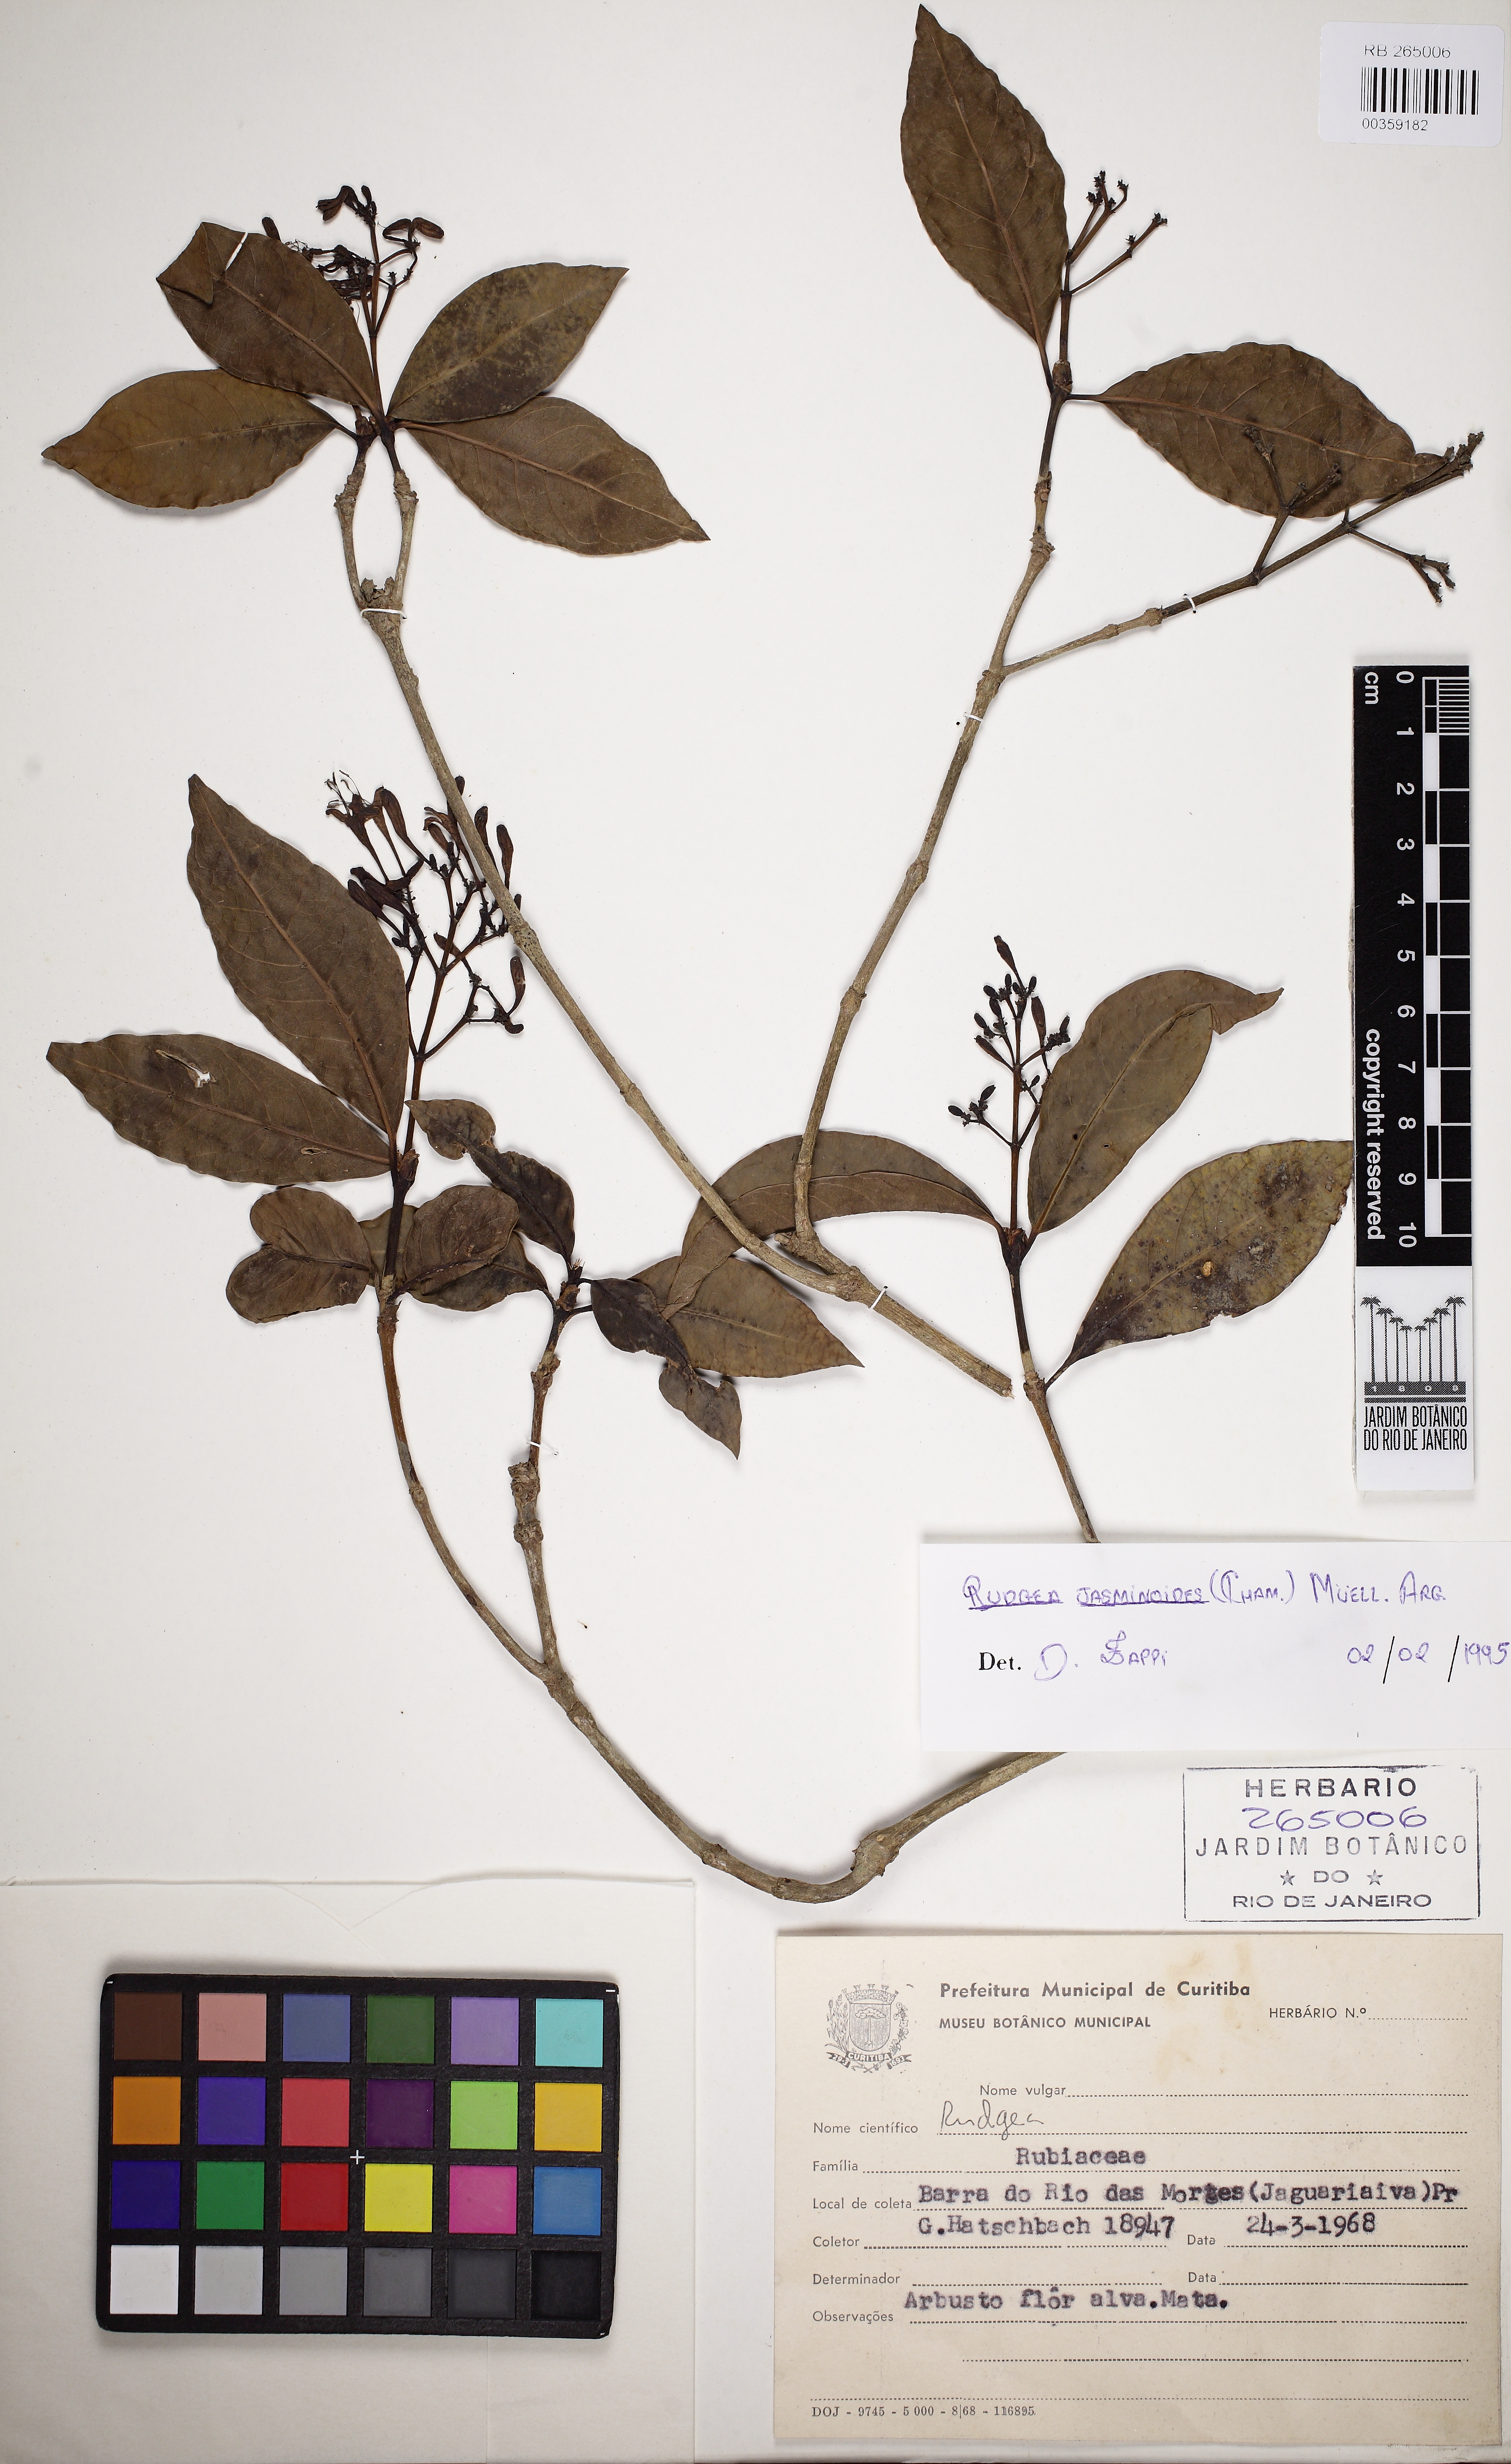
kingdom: Plantae
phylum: Tracheophyta
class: Magnoliopsida
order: Gentianales
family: Rubiaceae
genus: Rudgea
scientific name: Rudgea jasminoides
